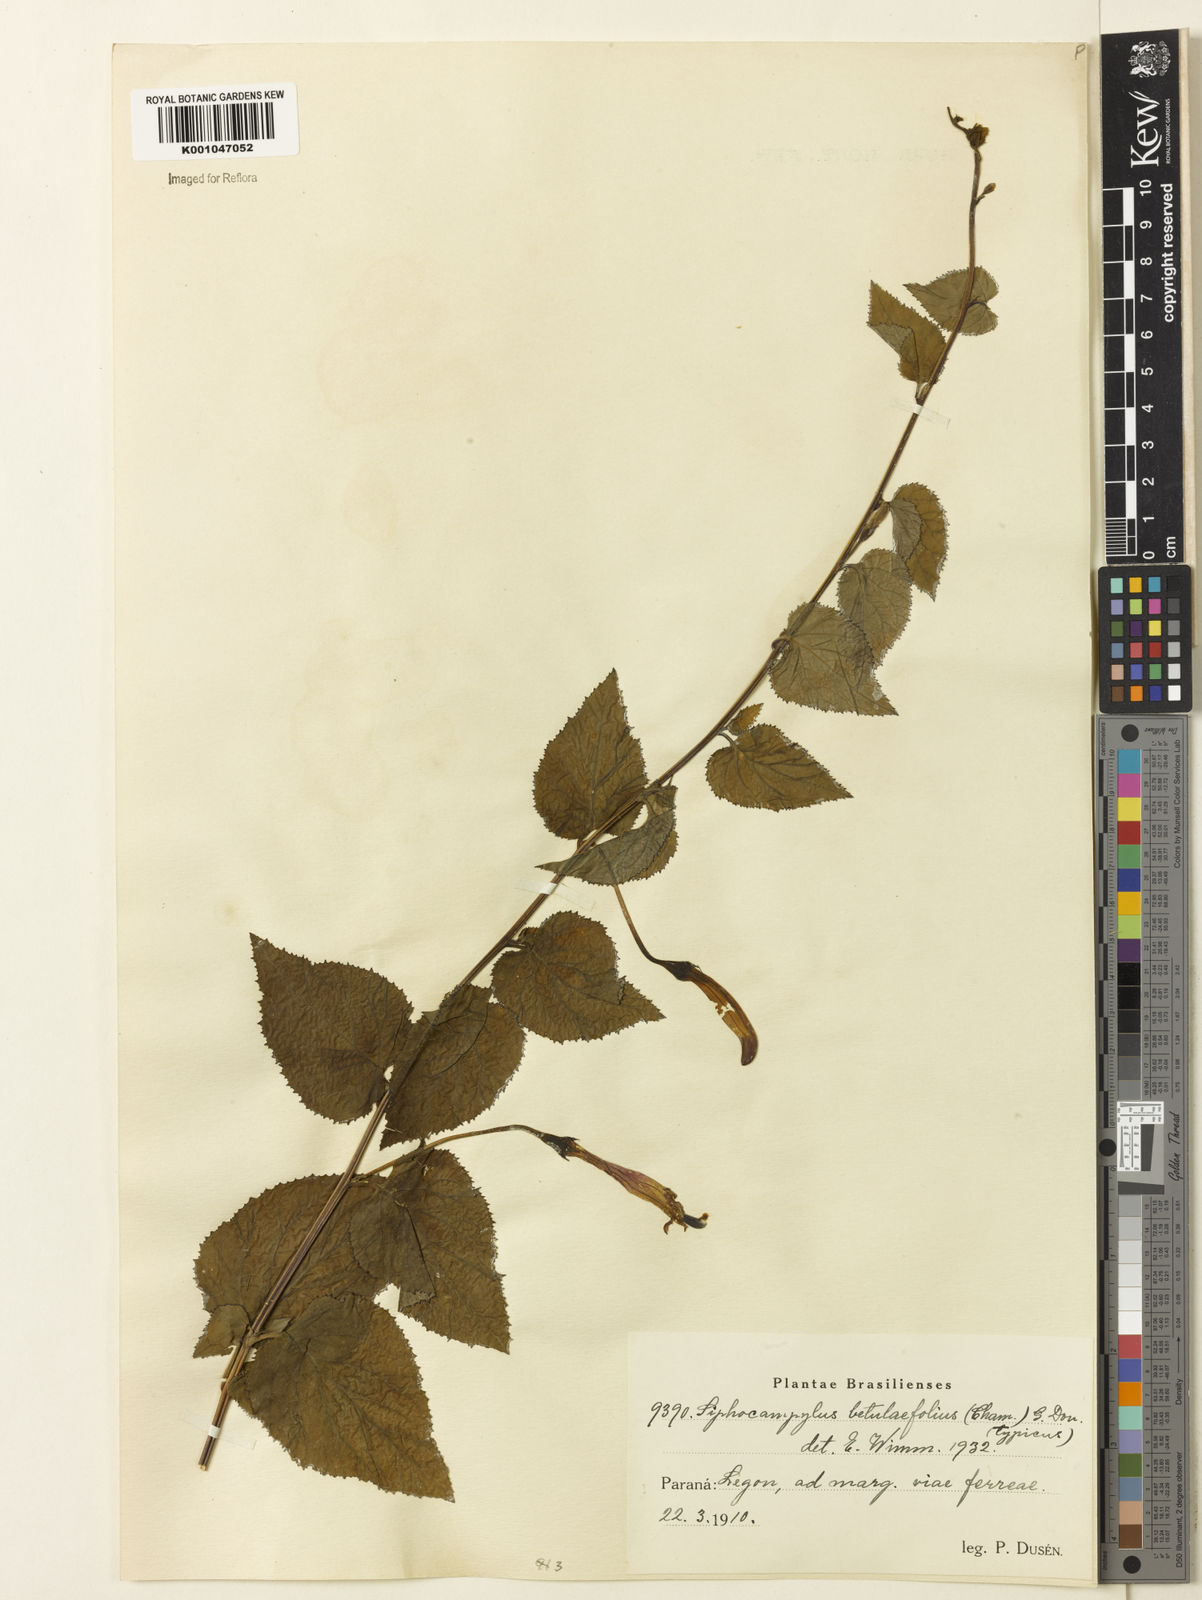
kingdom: Plantae
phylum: Tracheophyta
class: Magnoliopsida
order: Asterales
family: Campanulaceae
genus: Siphocampylus
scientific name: Siphocampylus betulifolius
